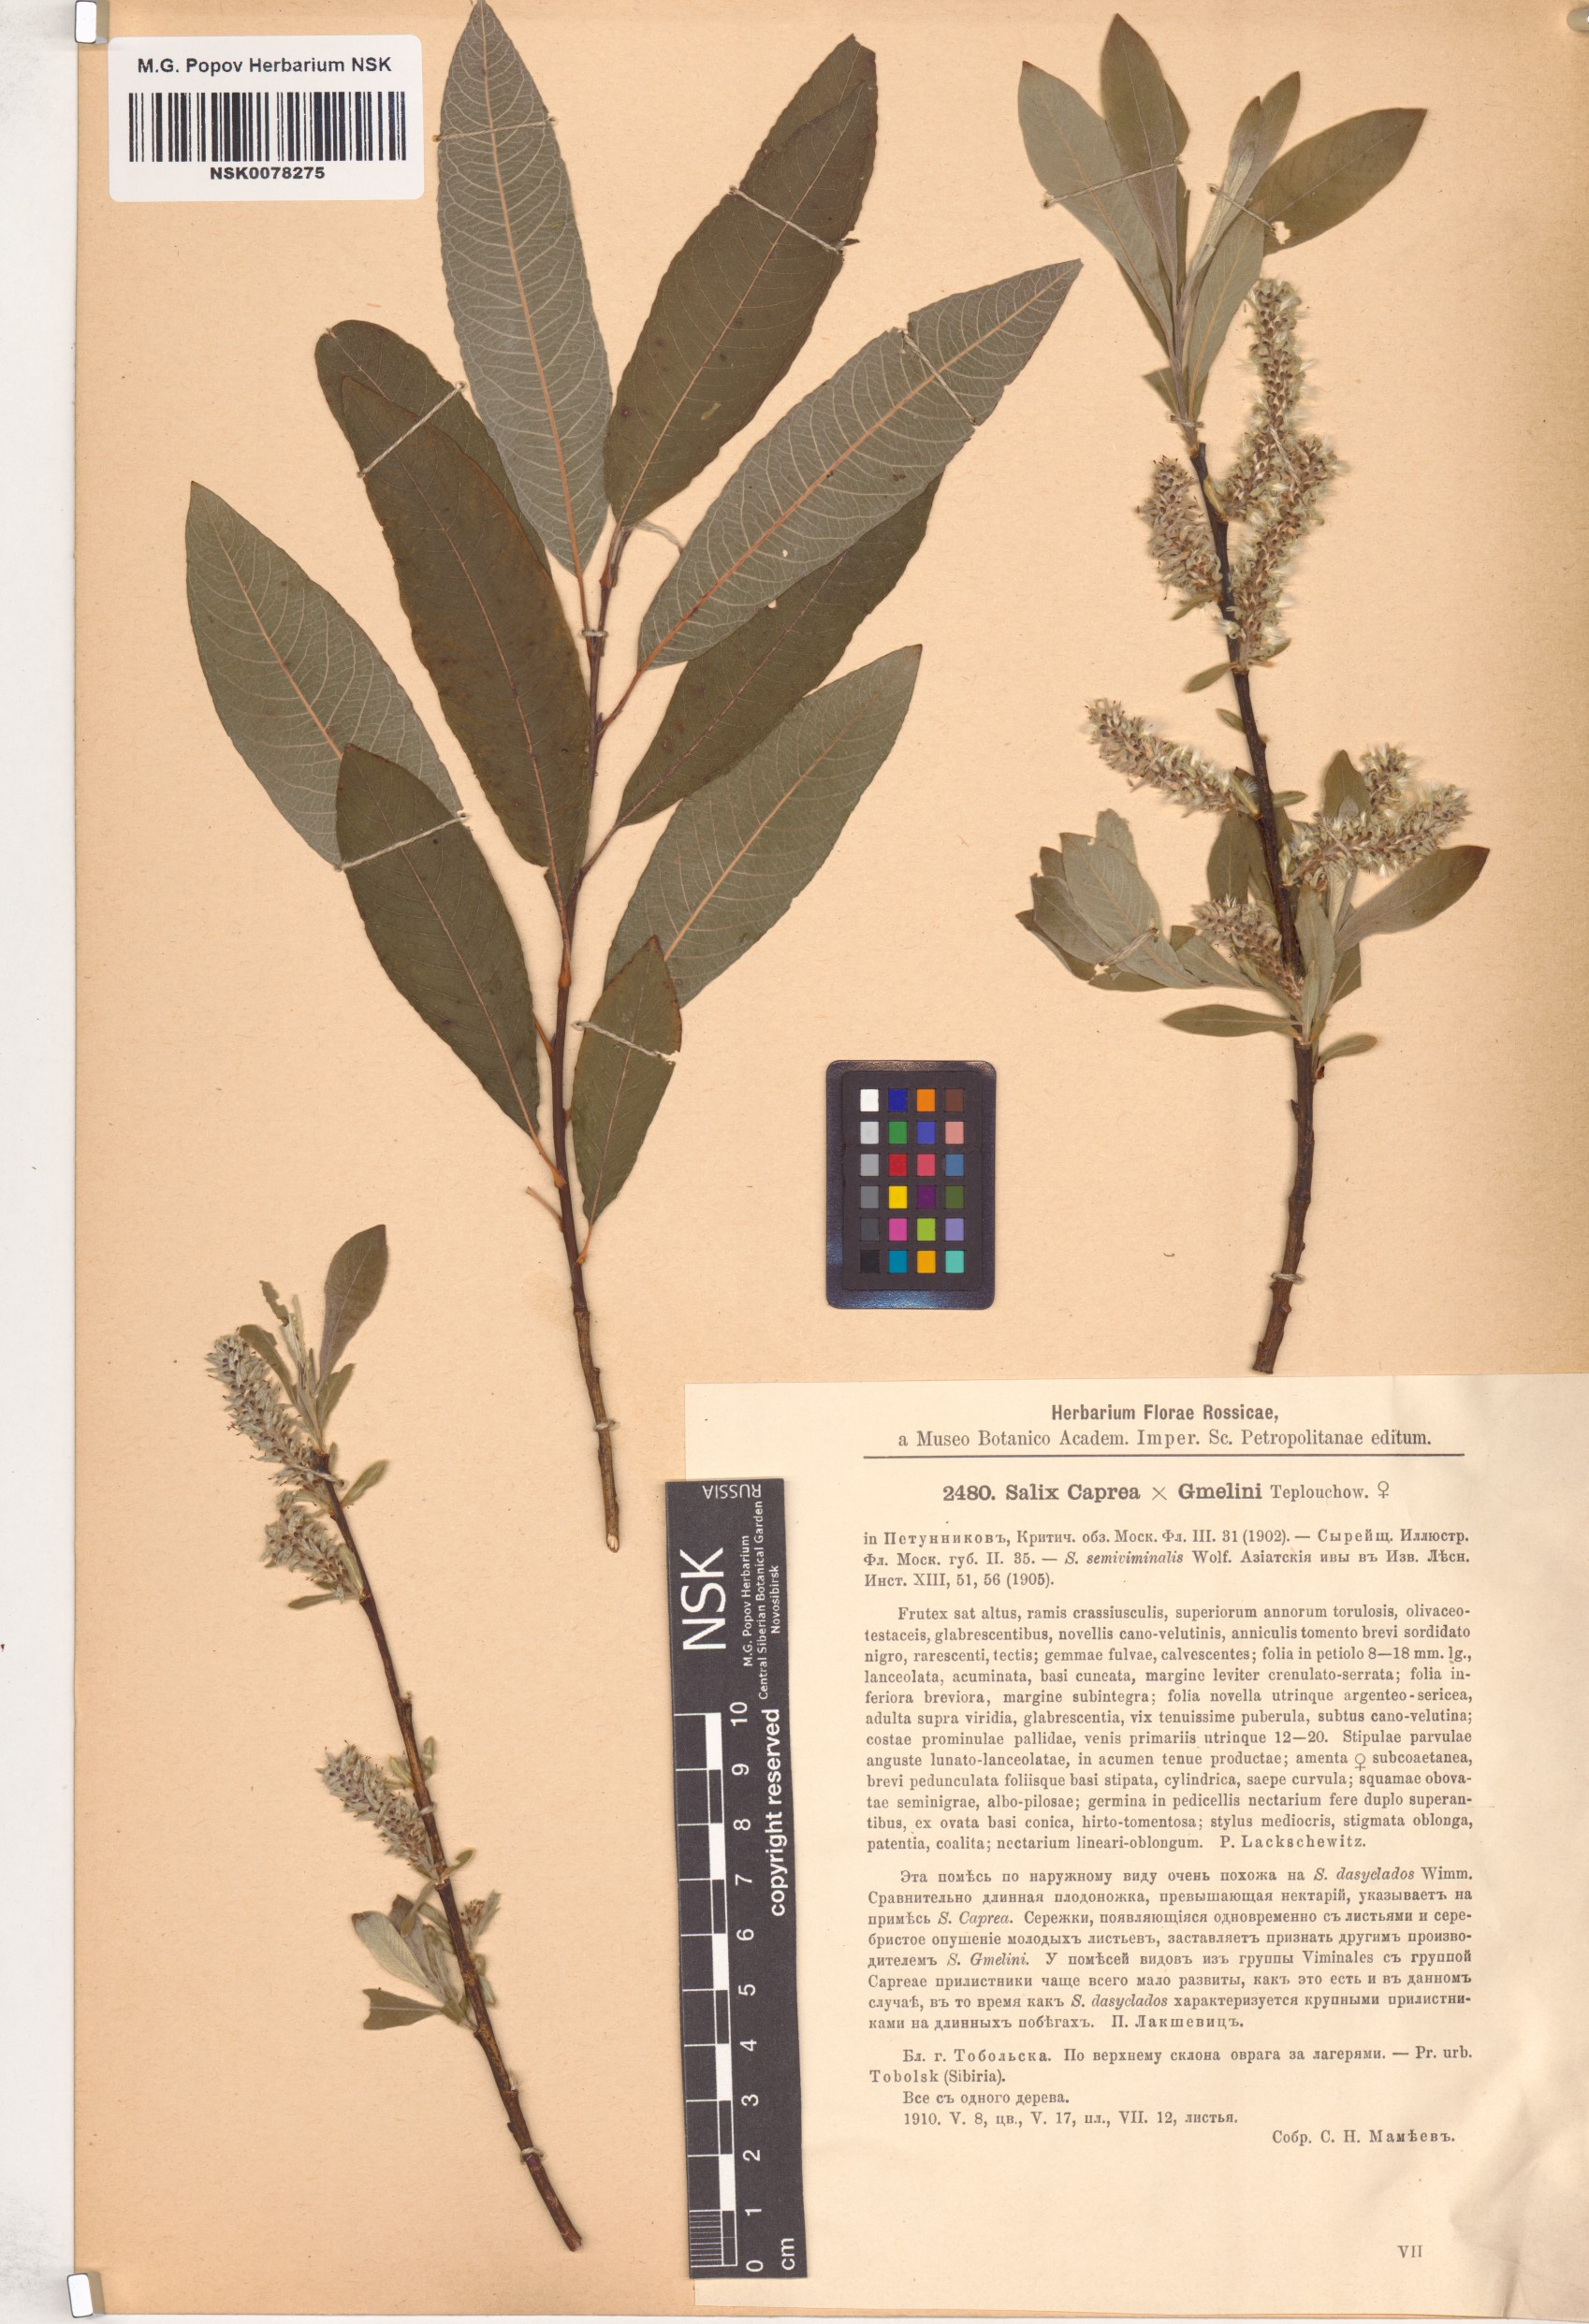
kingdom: Plantae
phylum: Tracheophyta
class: Magnoliopsida
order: Malpighiales
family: Salicaceae
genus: Salix
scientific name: Salix
